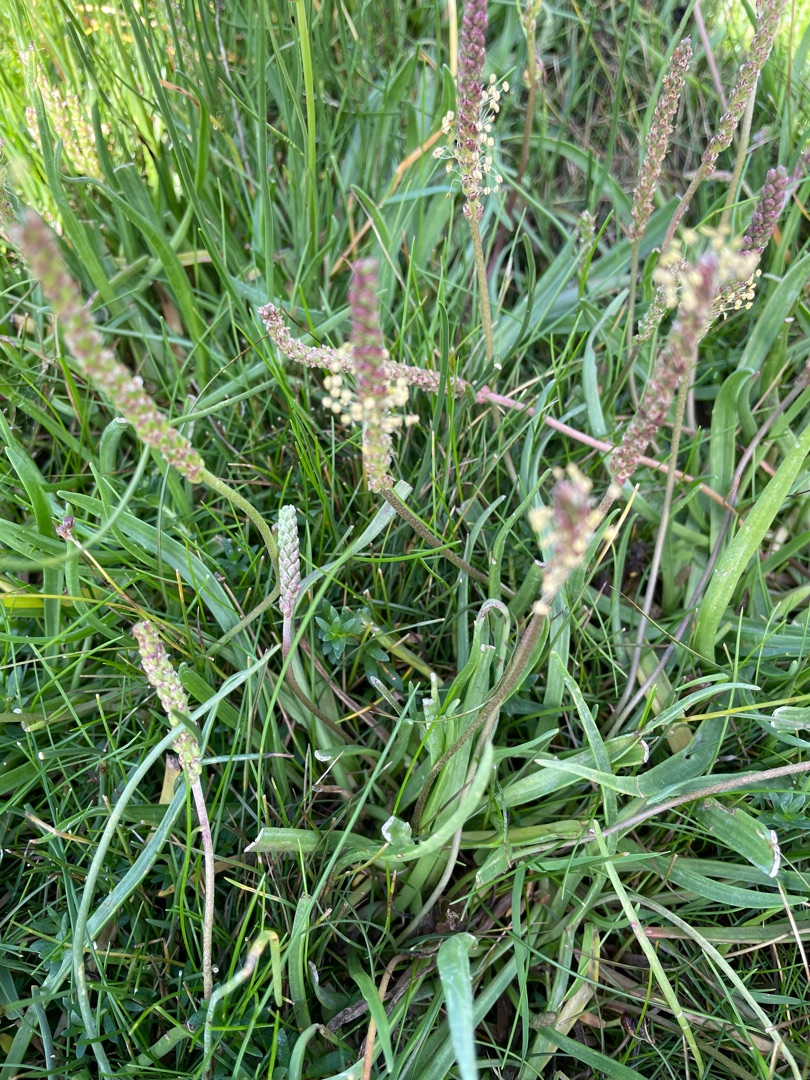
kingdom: Plantae
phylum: Tracheophyta
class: Magnoliopsida
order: Lamiales
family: Plantaginaceae
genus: Plantago
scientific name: Plantago maritima
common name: Strand-vejbred
